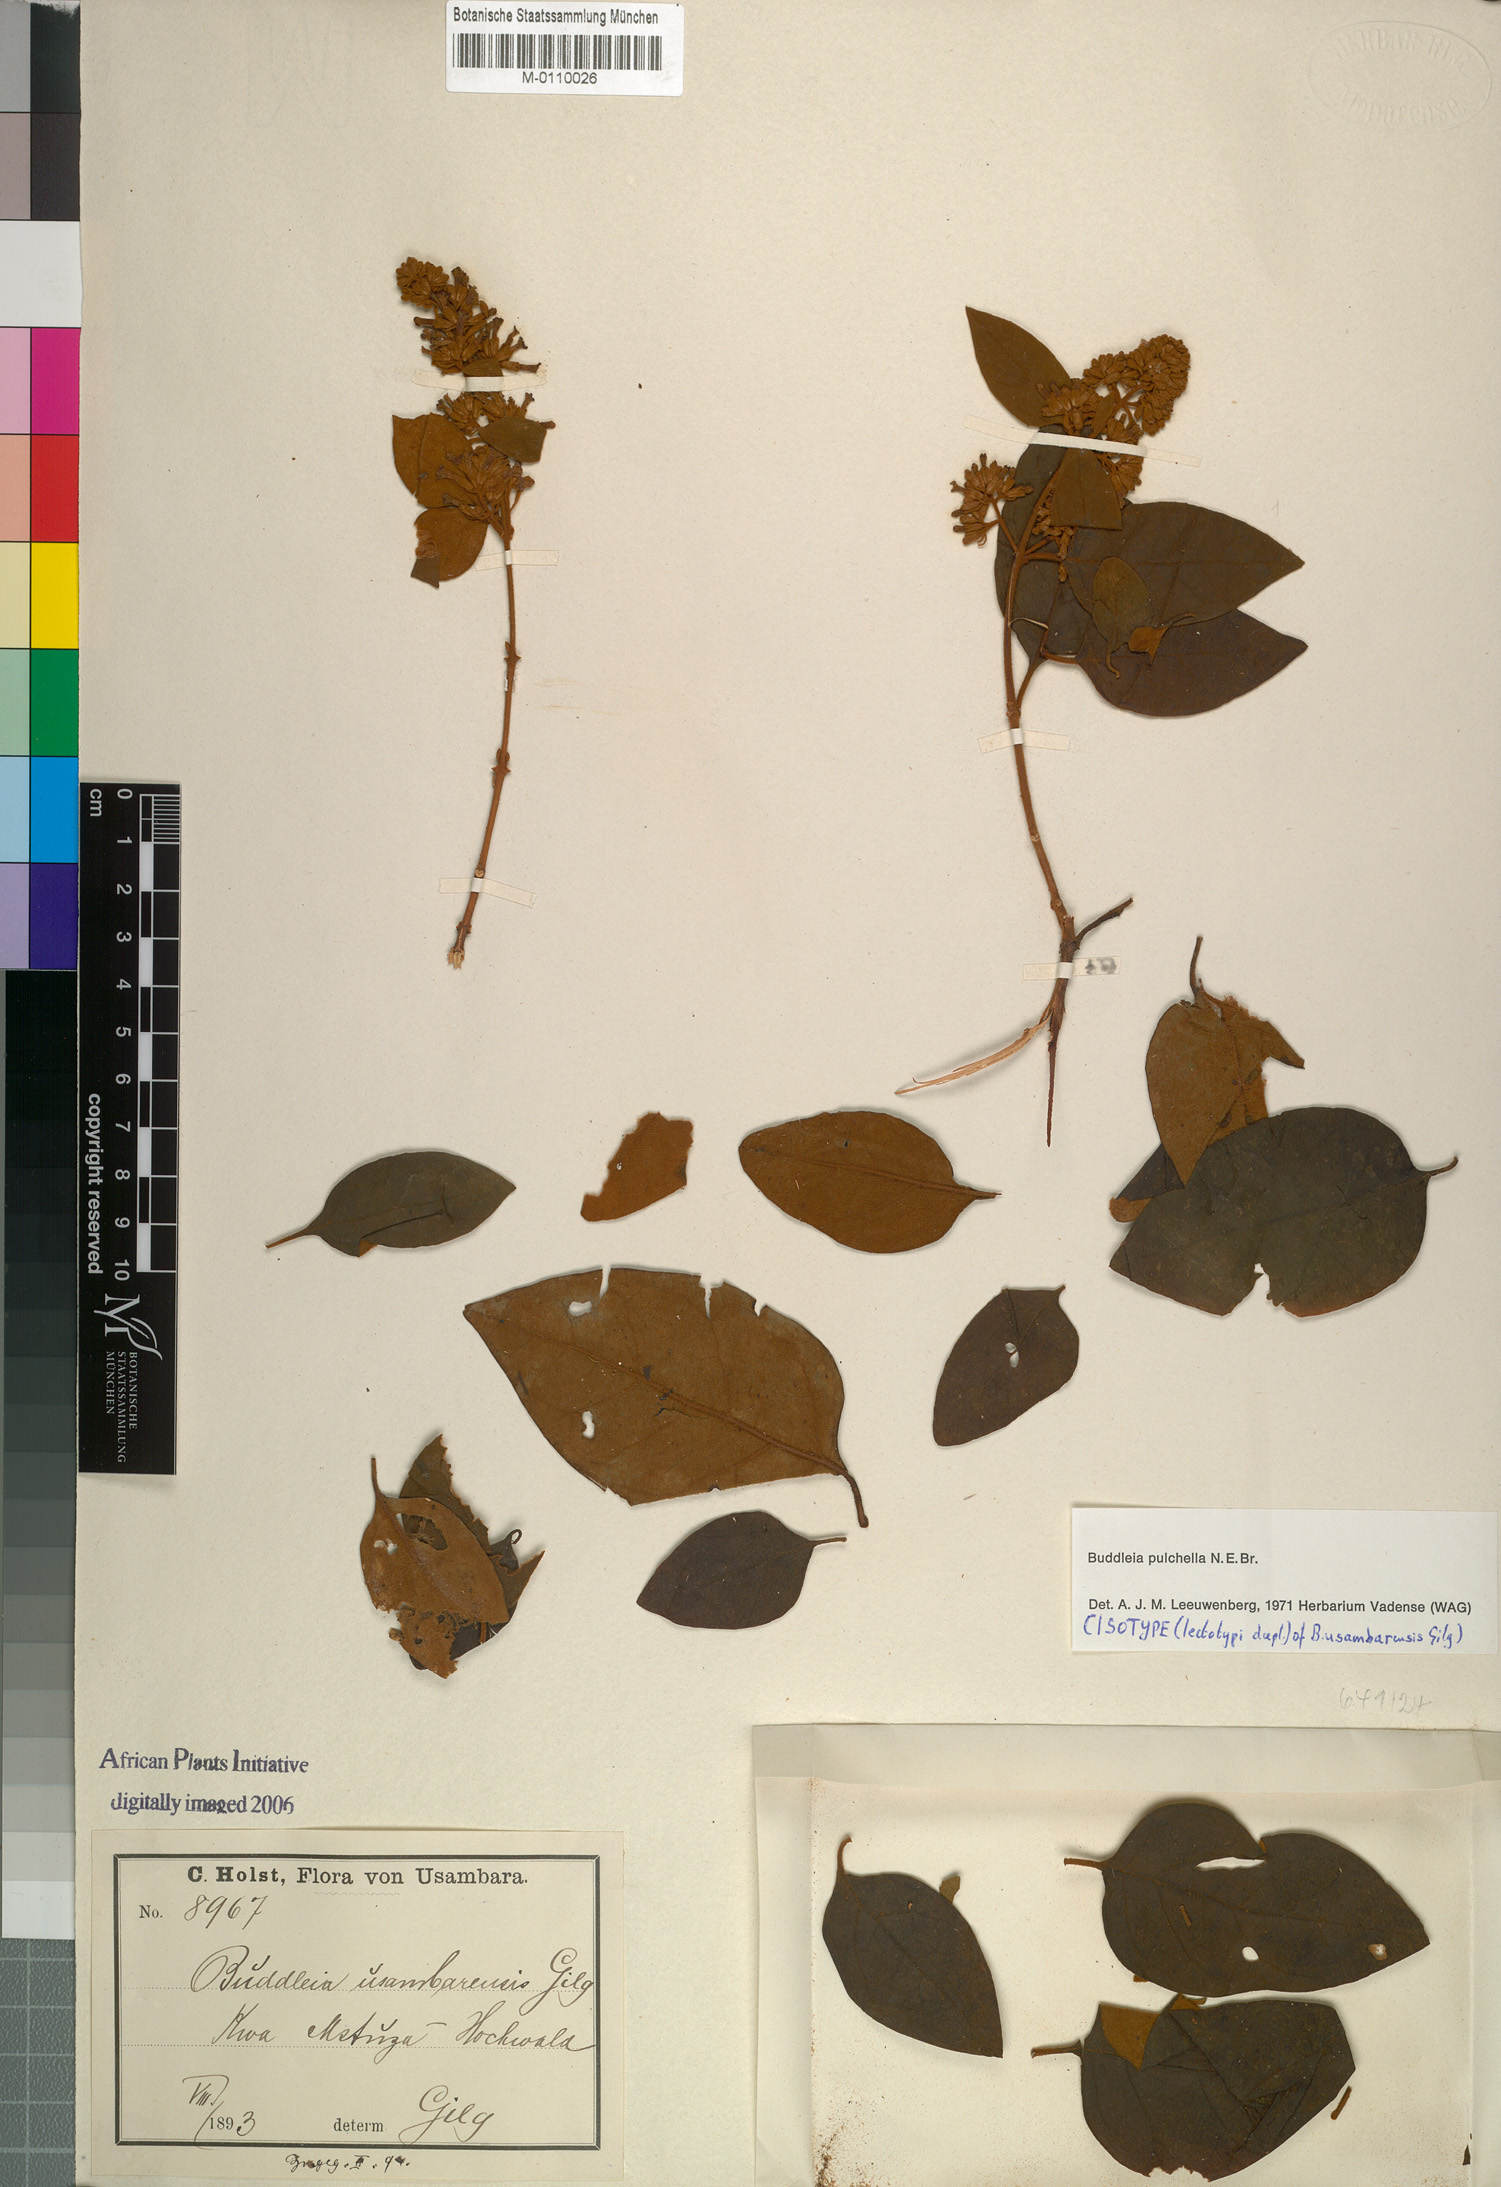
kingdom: Plantae
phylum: Tracheophyta
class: Magnoliopsida
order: Lamiales
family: Scrophulariaceae
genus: Buddleja
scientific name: Buddleja pulchella
